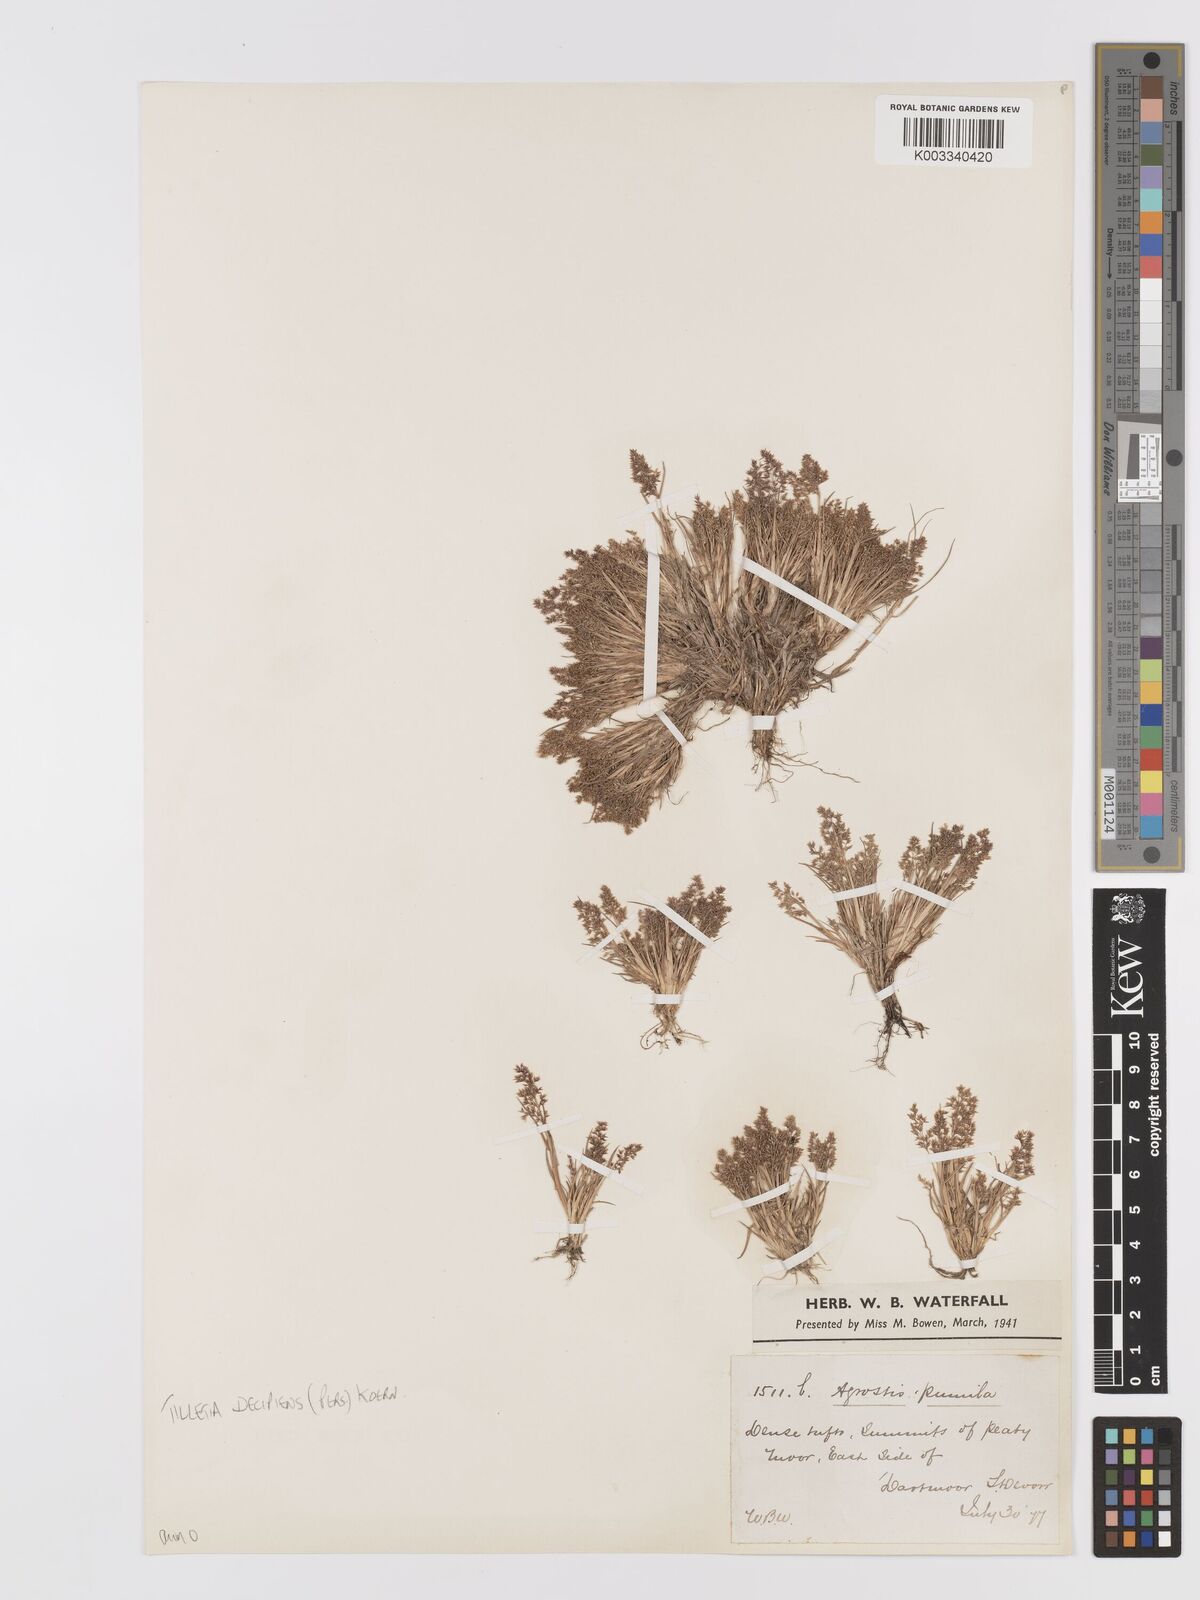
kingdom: Plantae
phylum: Tracheophyta
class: Liliopsida
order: Poales
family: Poaceae
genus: Agrostis
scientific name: Agrostis capillaris
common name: Colonial bentgrass
